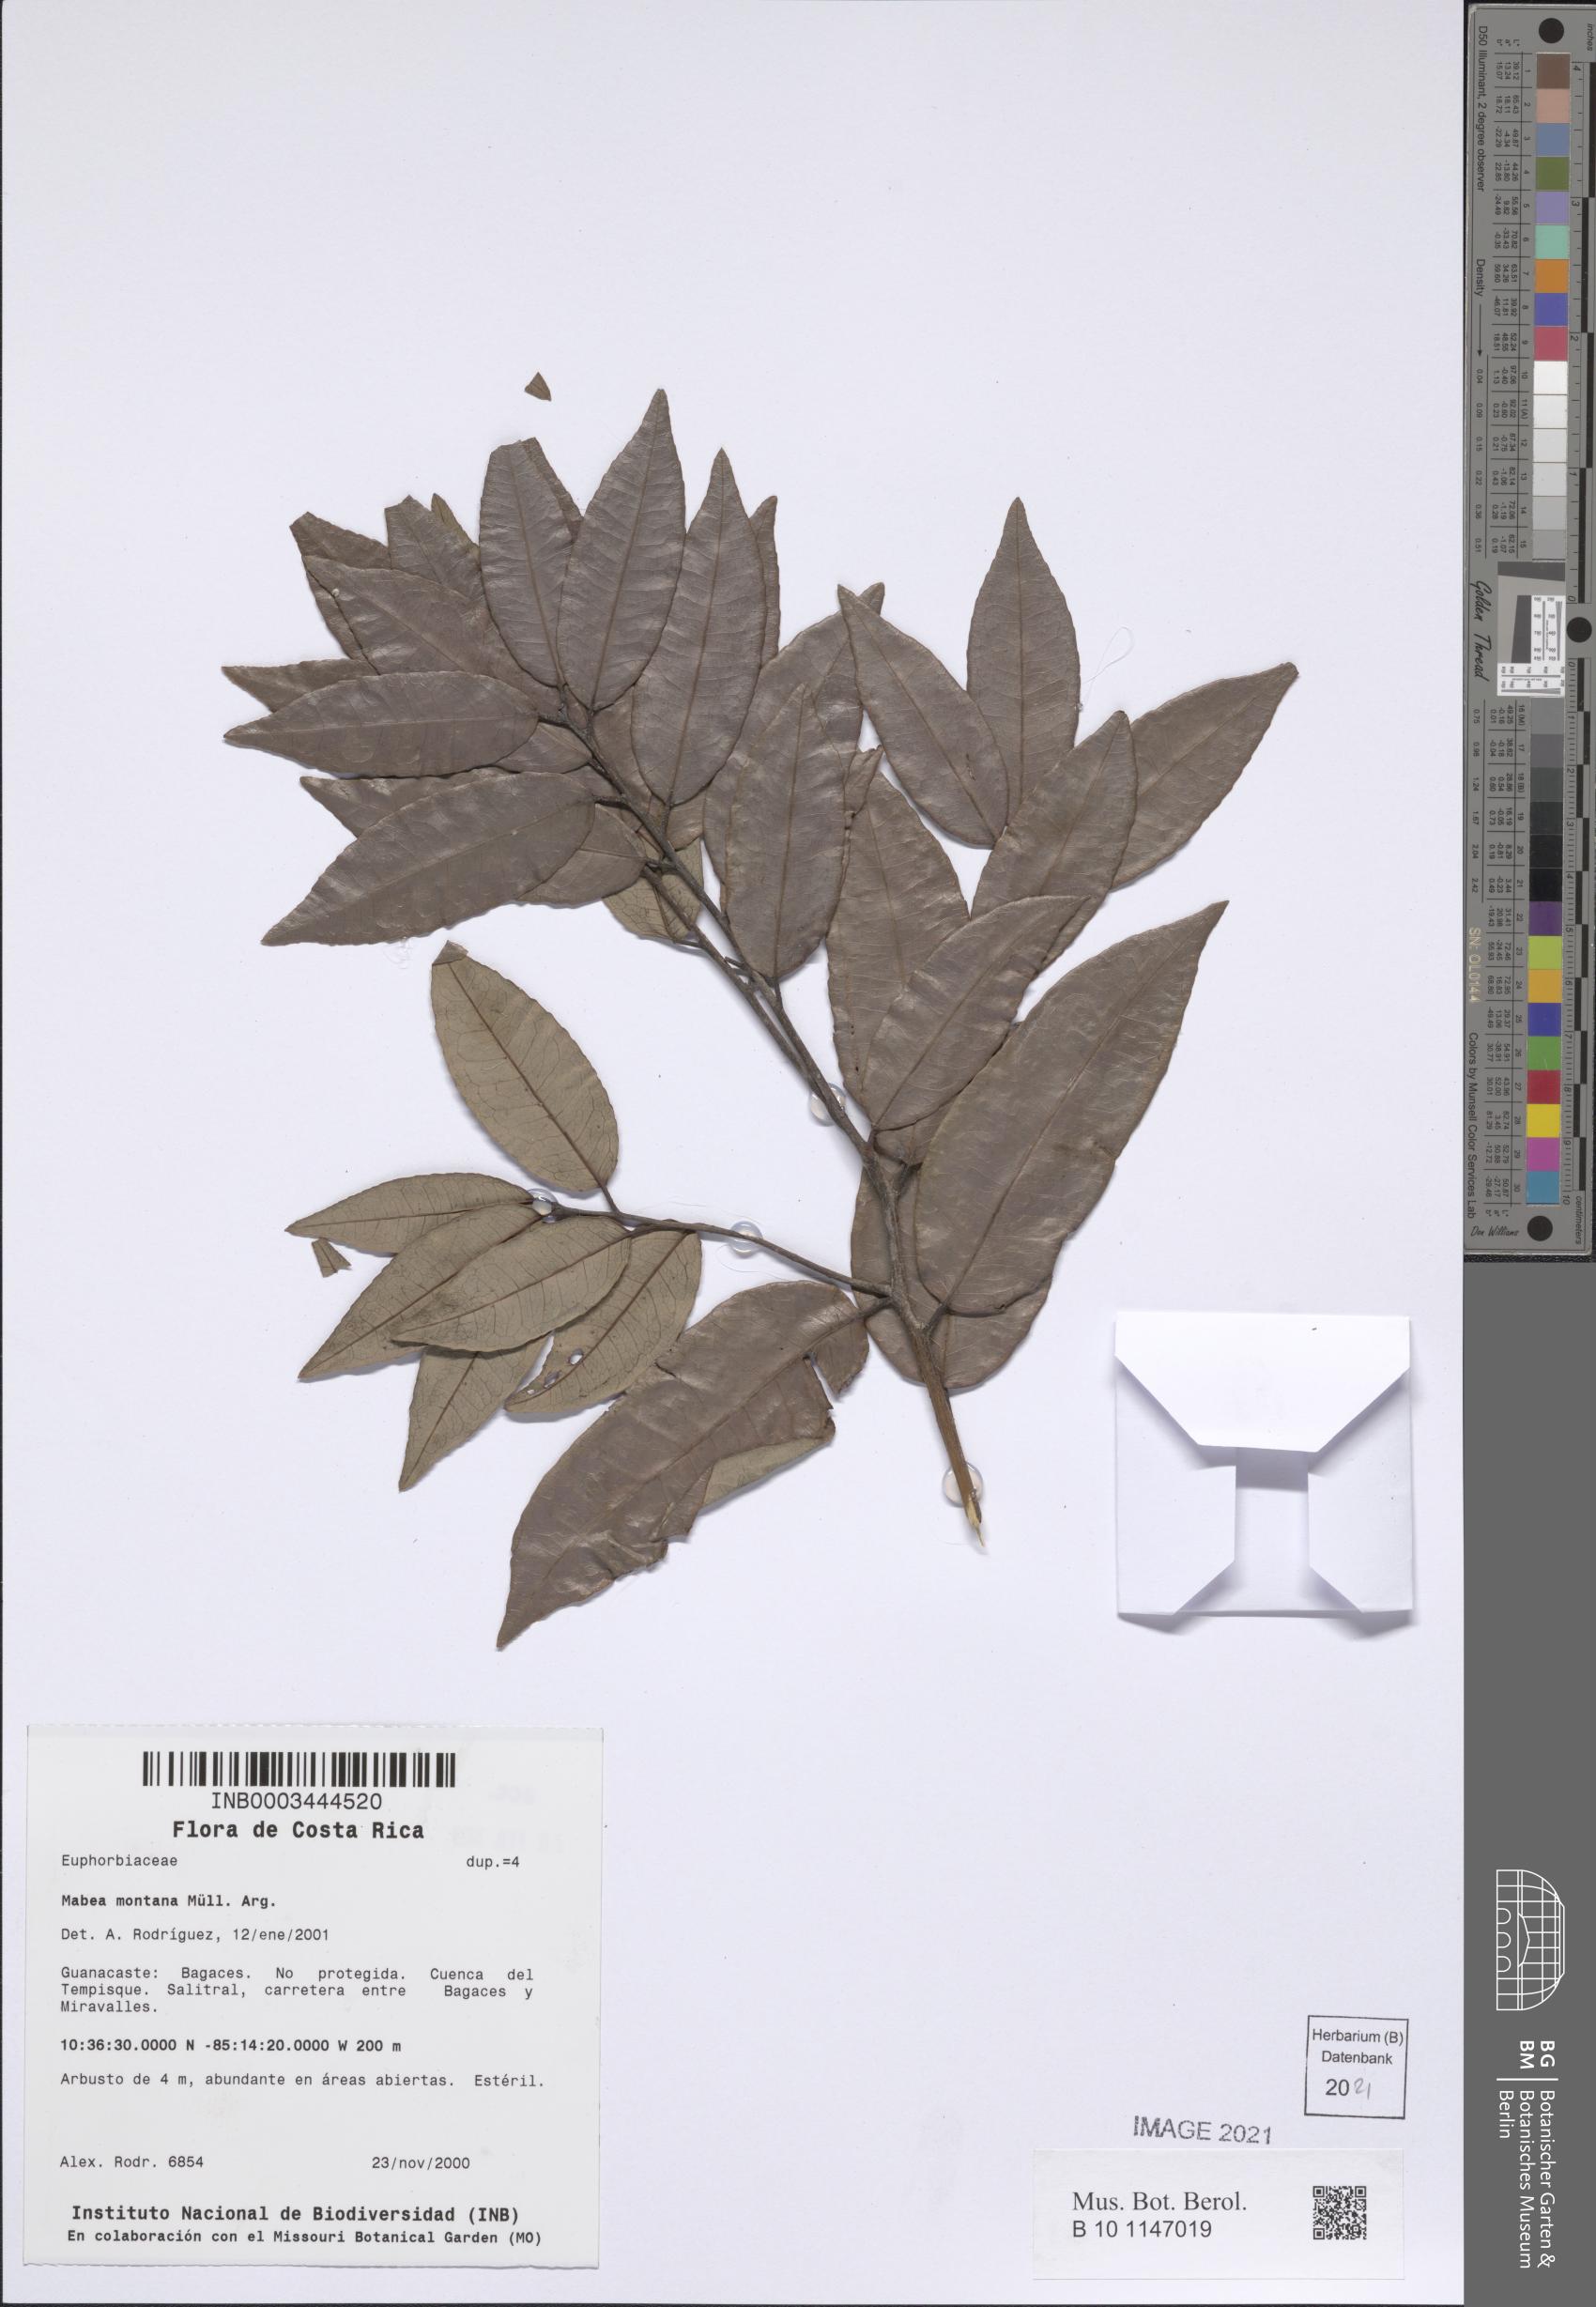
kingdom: Plantae
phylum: Tracheophyta
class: Magnoliopsida
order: Malpighiales
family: Euphorbiaceae
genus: Mabea
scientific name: Mabea montana
